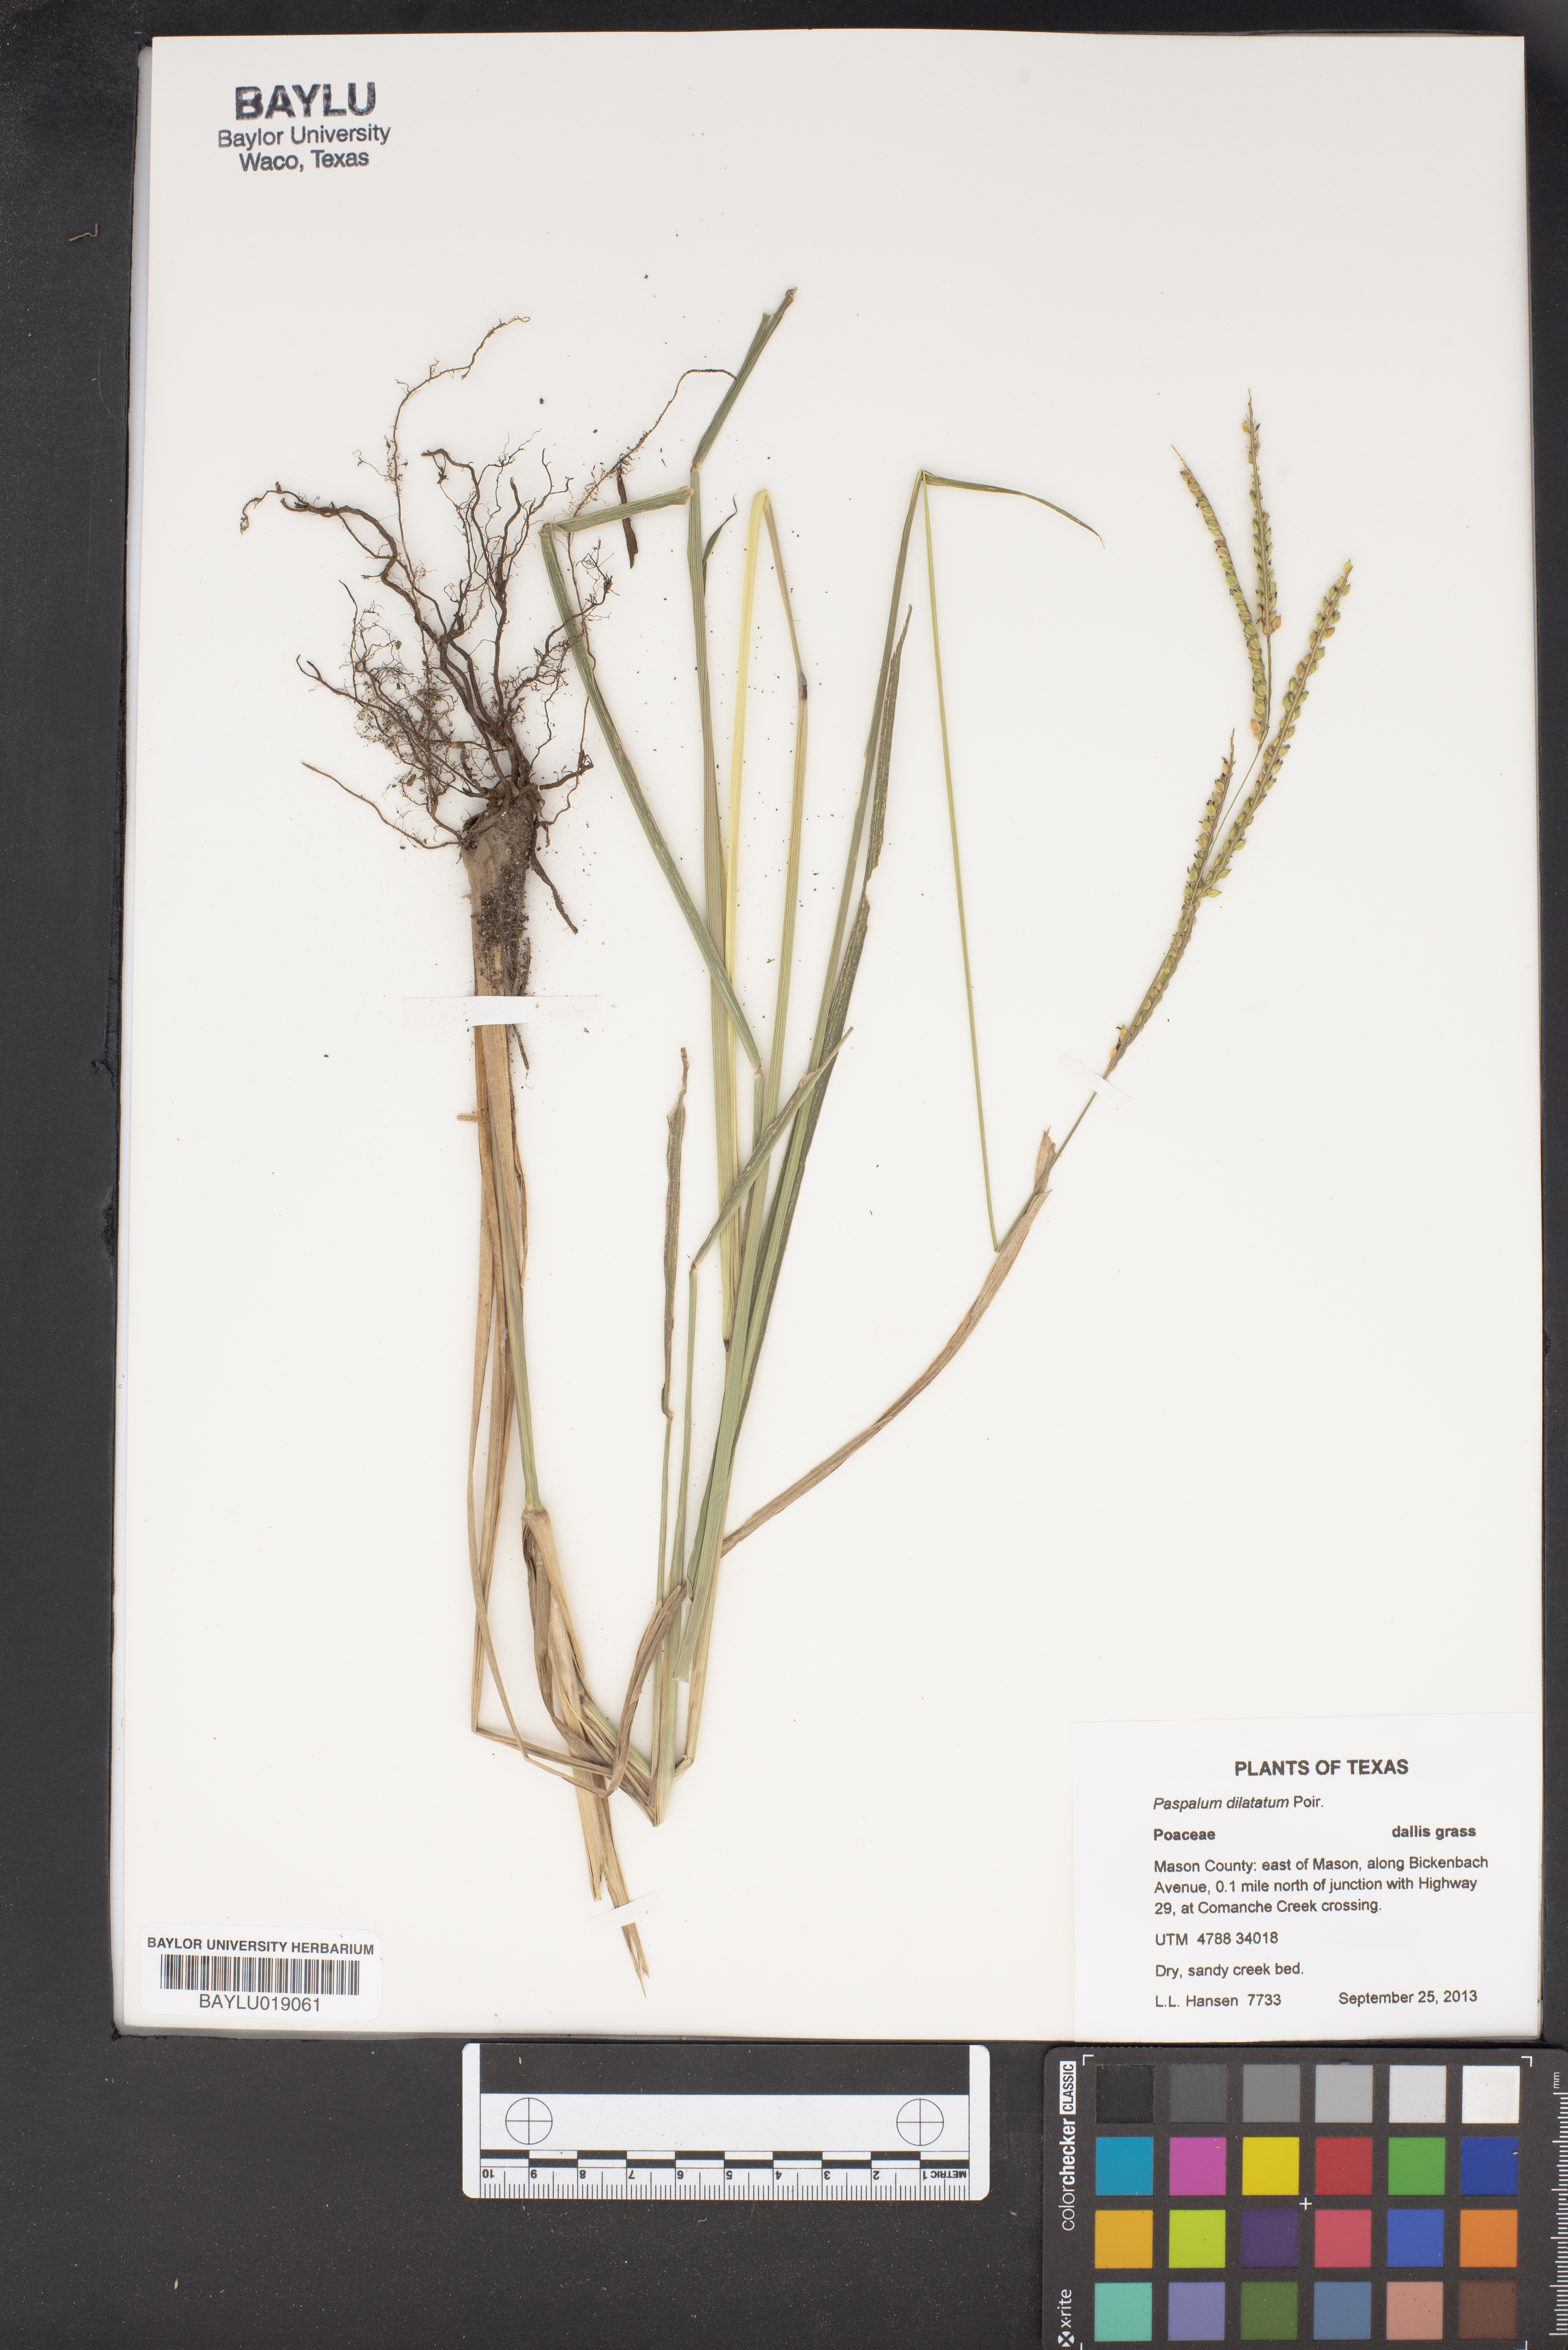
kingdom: Plantae
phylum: Tracheophyta
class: Liliopsida
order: Poales
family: Poaceae
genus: Paspalum
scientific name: Paspalum dilatatum
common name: Dallisgrass
